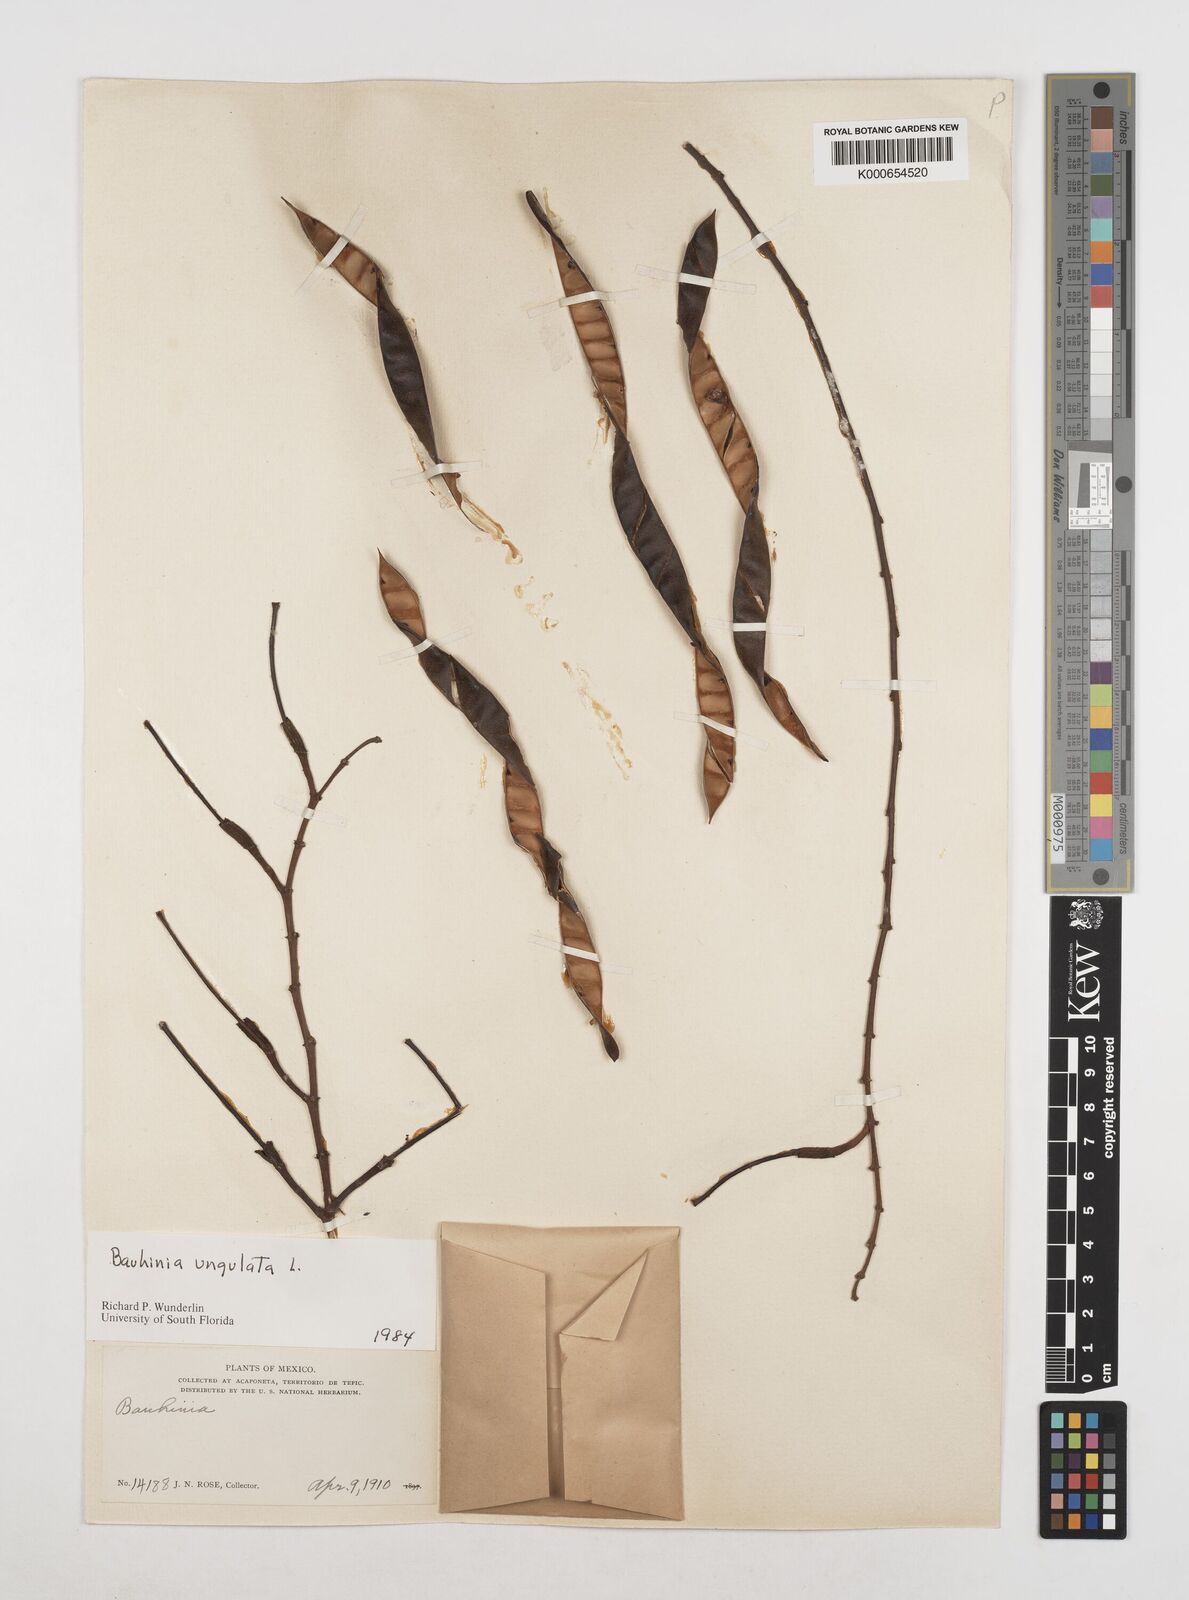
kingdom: Plantae
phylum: Tracheophyta
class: Magnoliopsida
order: Fabales
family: Fabaceae
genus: Bauhinia
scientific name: Bauhinia ungulata
